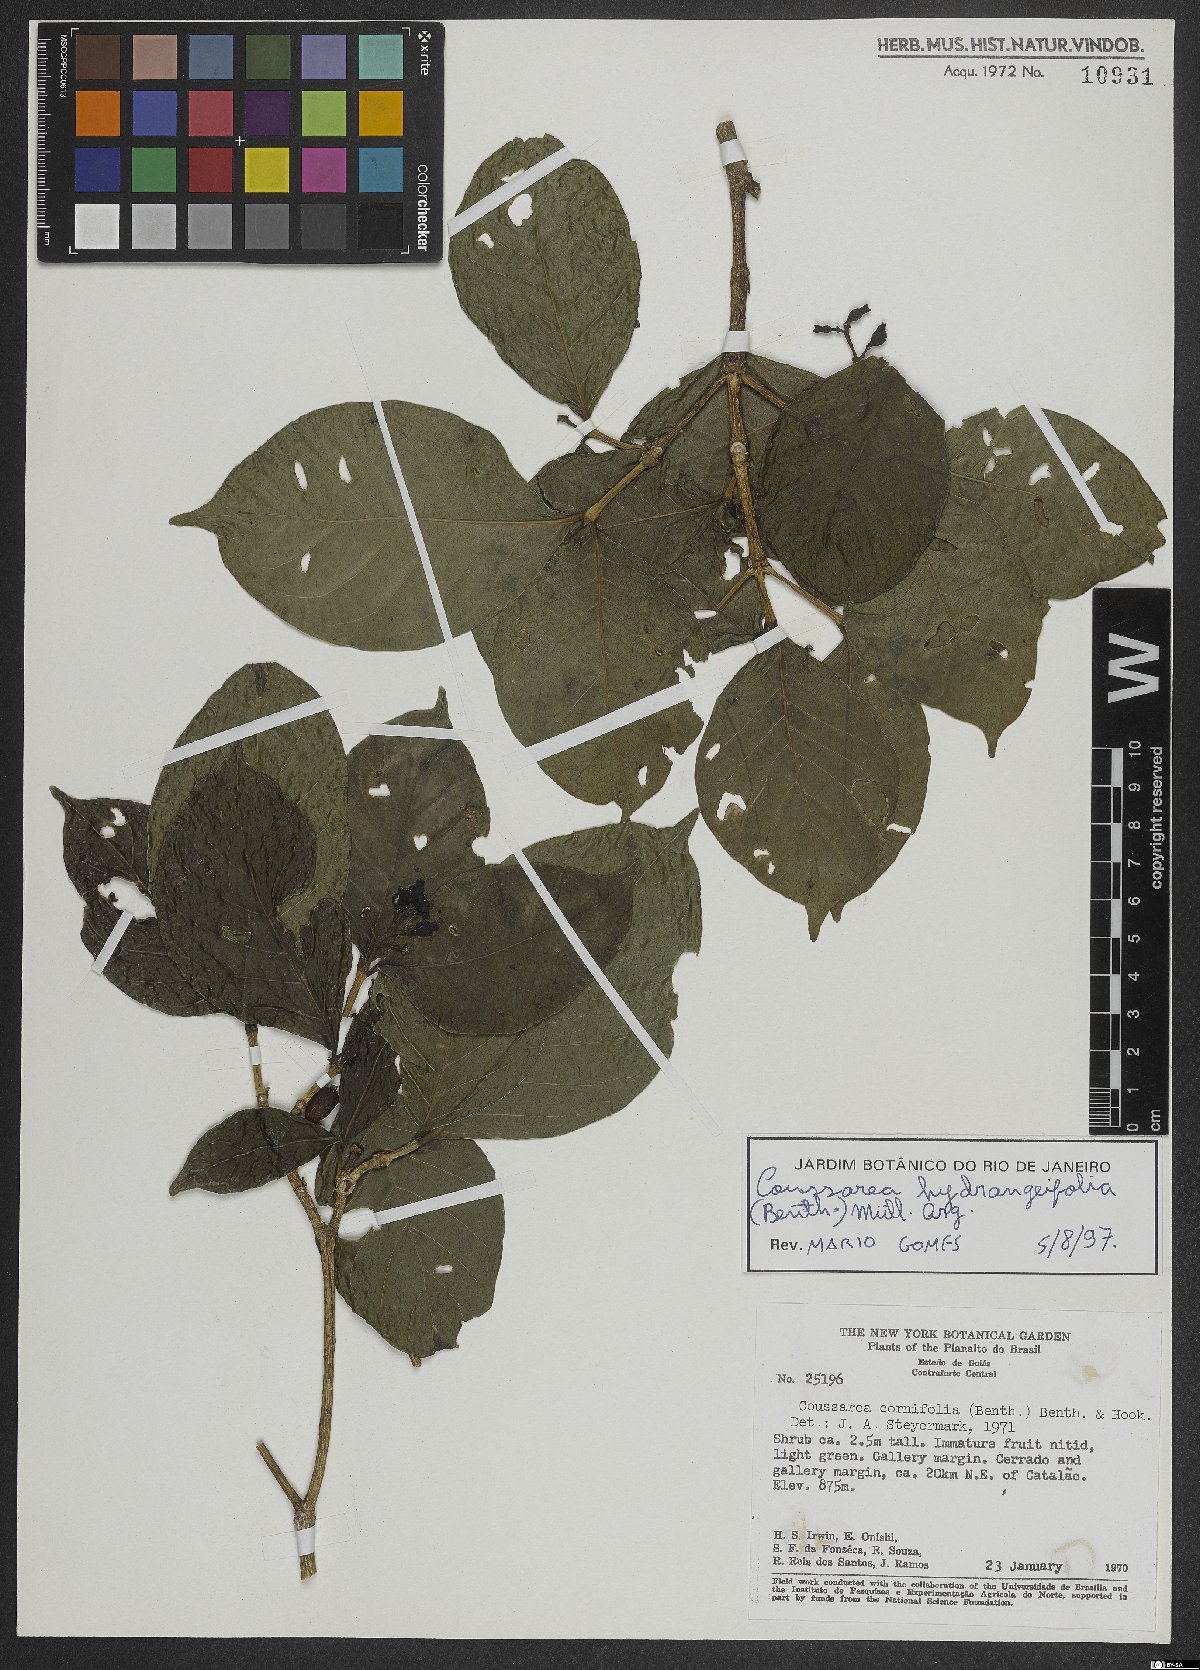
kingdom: Plantae
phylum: Tracheophyta
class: Magnoliopsida
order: Gentianales
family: Rubiaceae
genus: Coussarea
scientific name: Coussarea hydrangeifolia
